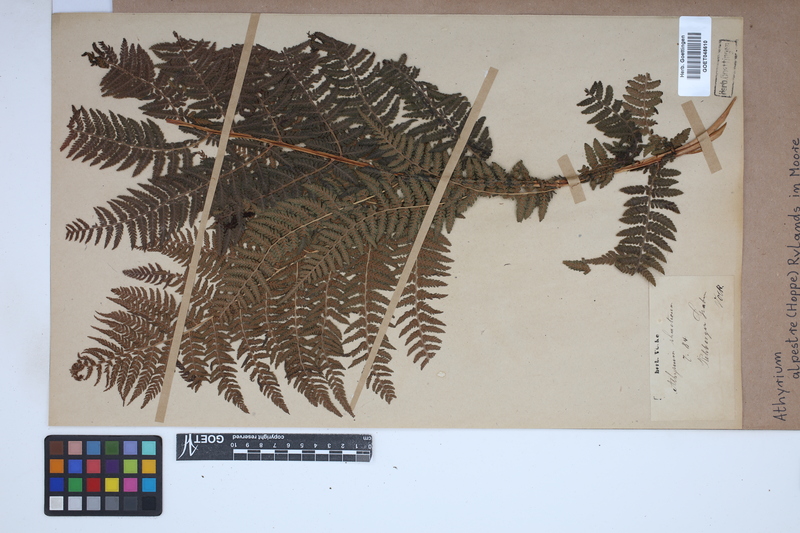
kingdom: Plantae
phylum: Tracheophyta
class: Polypodiopsida
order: Polypodiales
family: Athyriaceae
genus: Pseudathyrium
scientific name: Pseudathyrium alpestre
